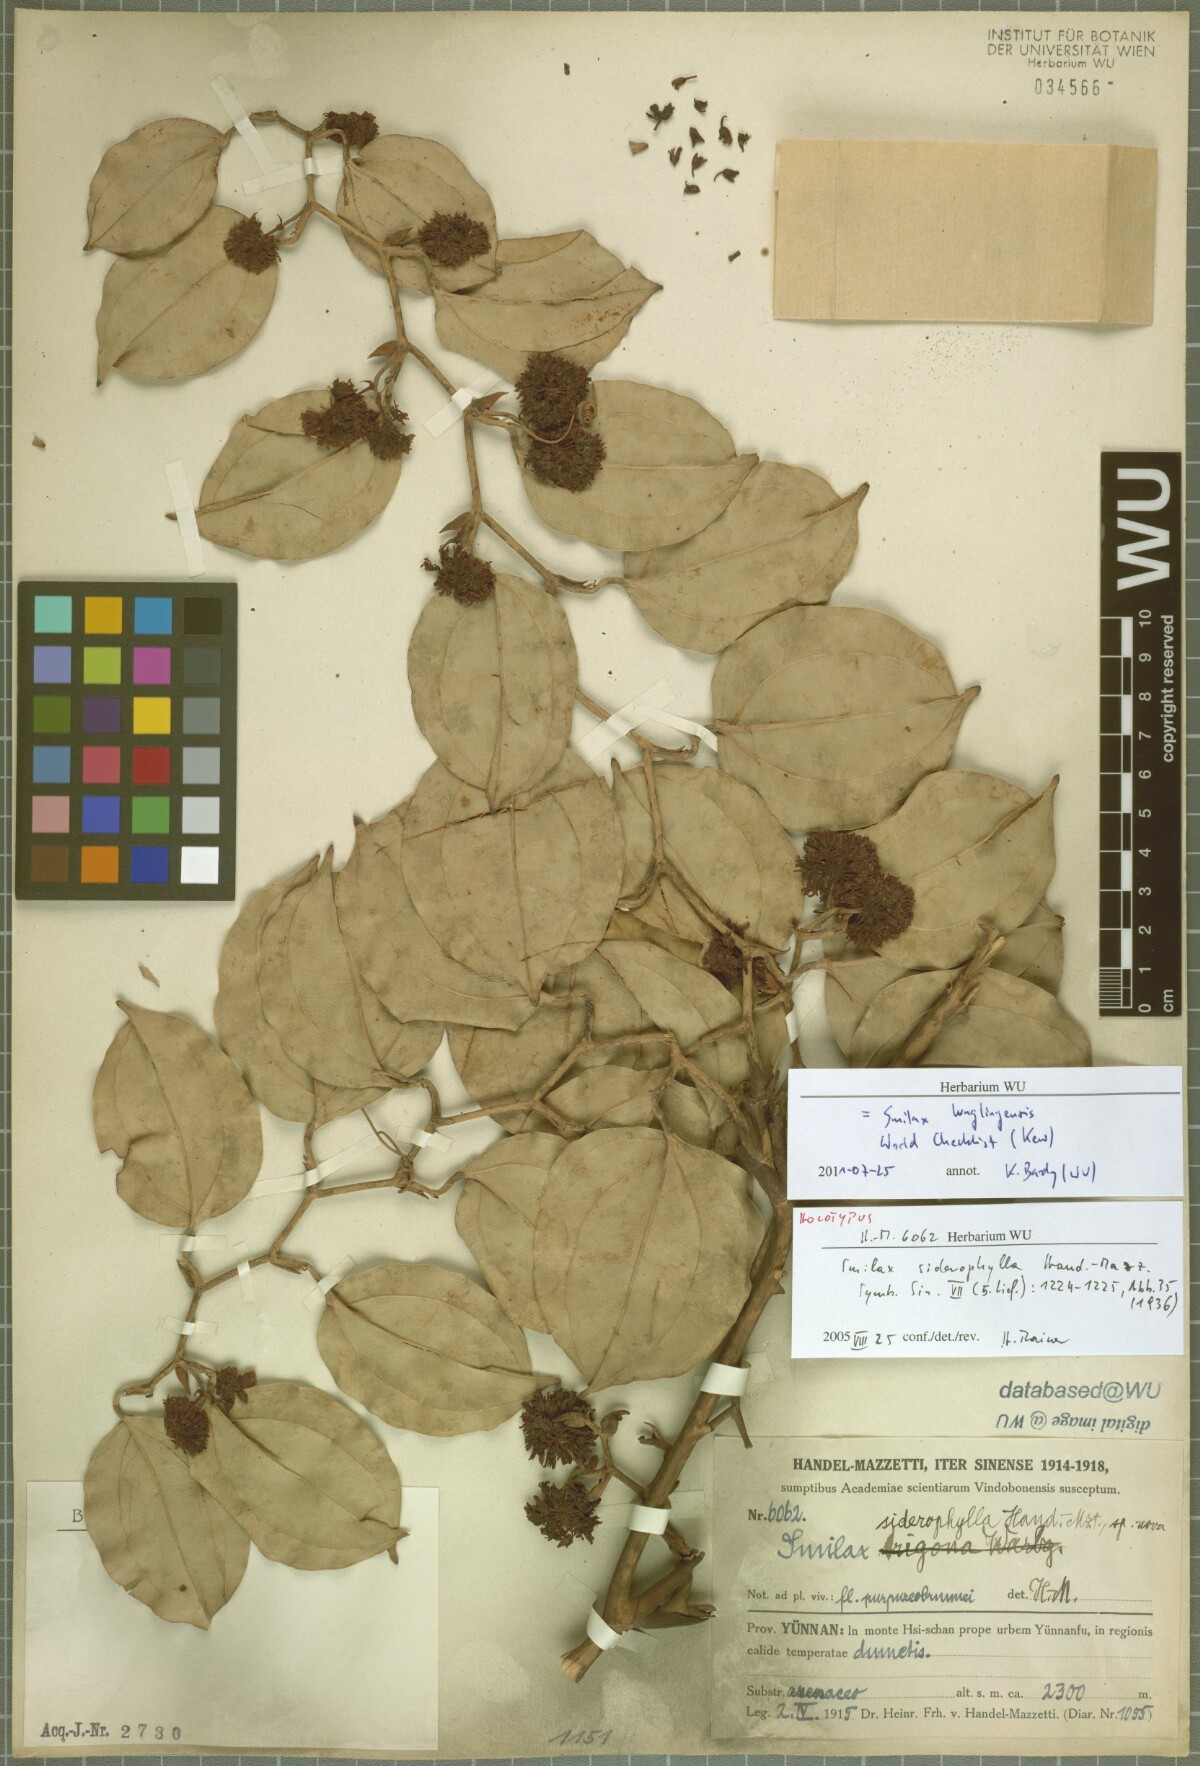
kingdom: Plantae
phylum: Tracheophyta
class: Liliopsida
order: Liliales
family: Smilacaceae
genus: Smilax
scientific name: Smilax lunglingensis
